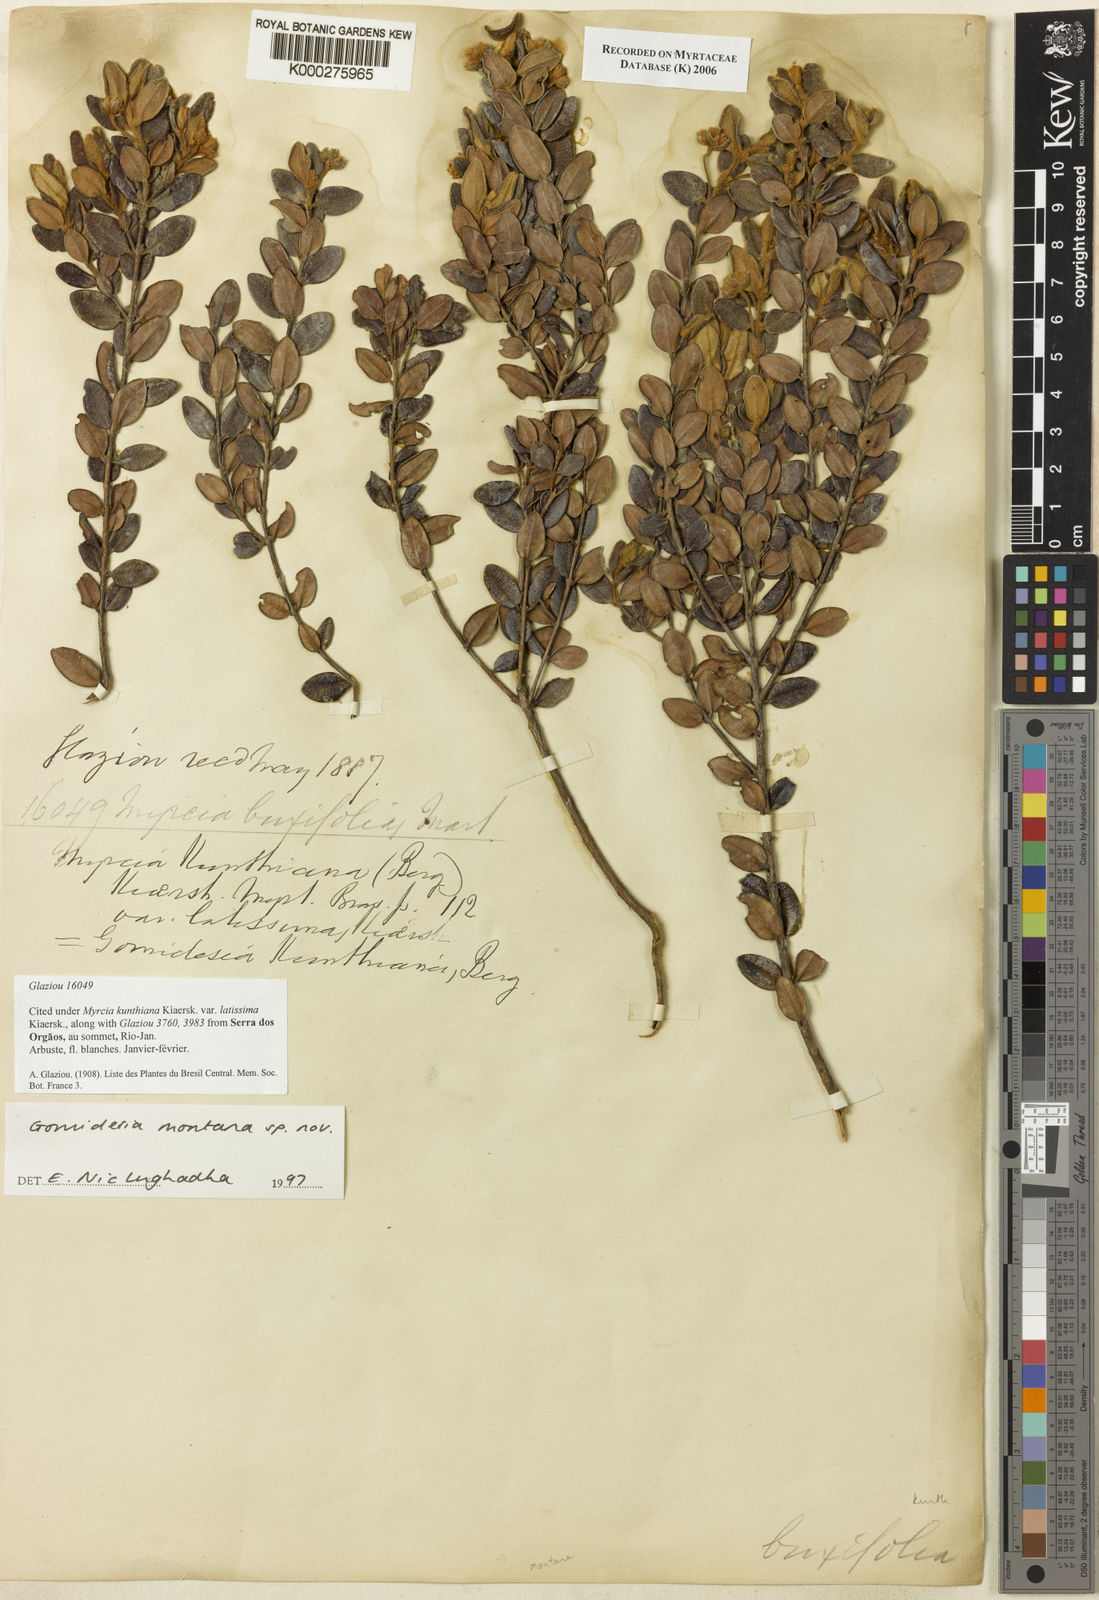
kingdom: Plantae
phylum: Tracheophyta
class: Magnoliopsida
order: Myrtales
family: Myrtaceae
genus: Myrcia
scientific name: Myrcia montana
